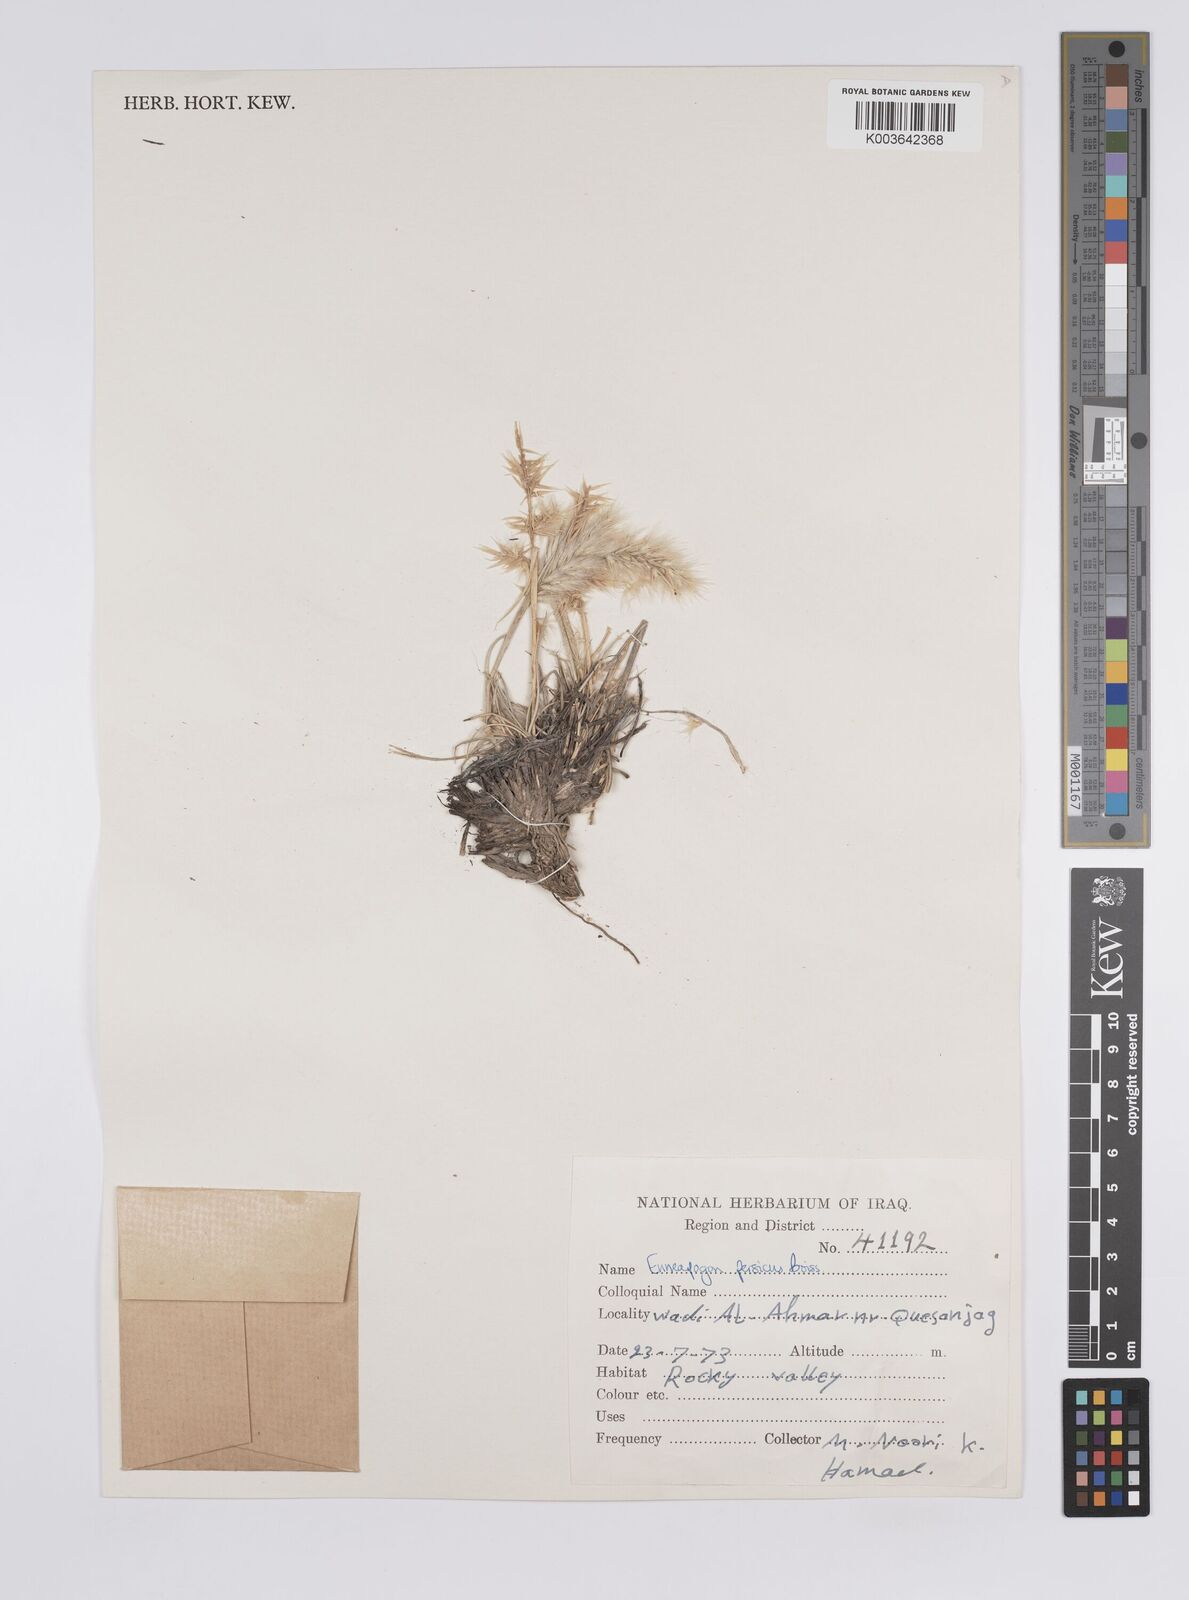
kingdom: Plantae
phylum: Tracheophyta
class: Liliopsida
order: Poales
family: Poaceae
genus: Enneapogon
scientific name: Enneapogon persicus
